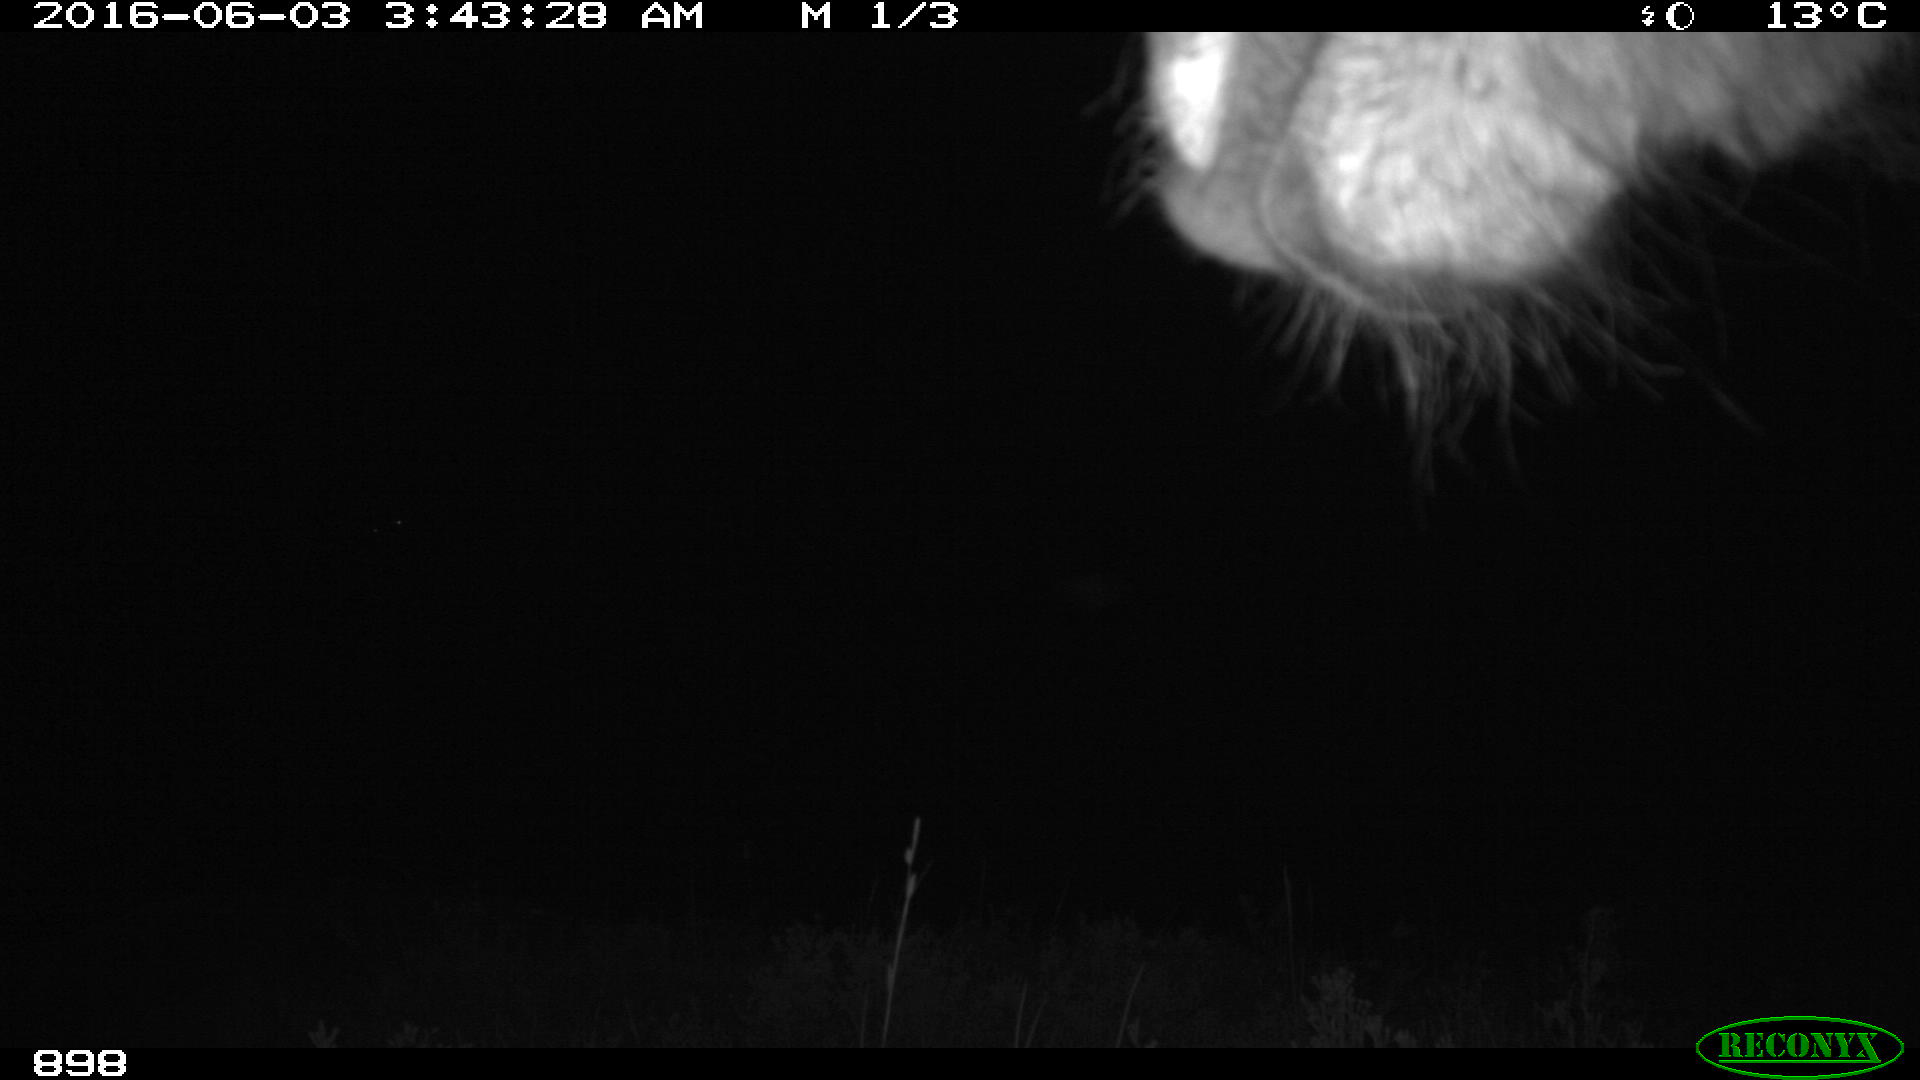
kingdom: Animalia
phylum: Chordata
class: Mammalia
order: Perissodactyla
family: Equidae
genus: Equus
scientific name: Equus caballus
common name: Horse
